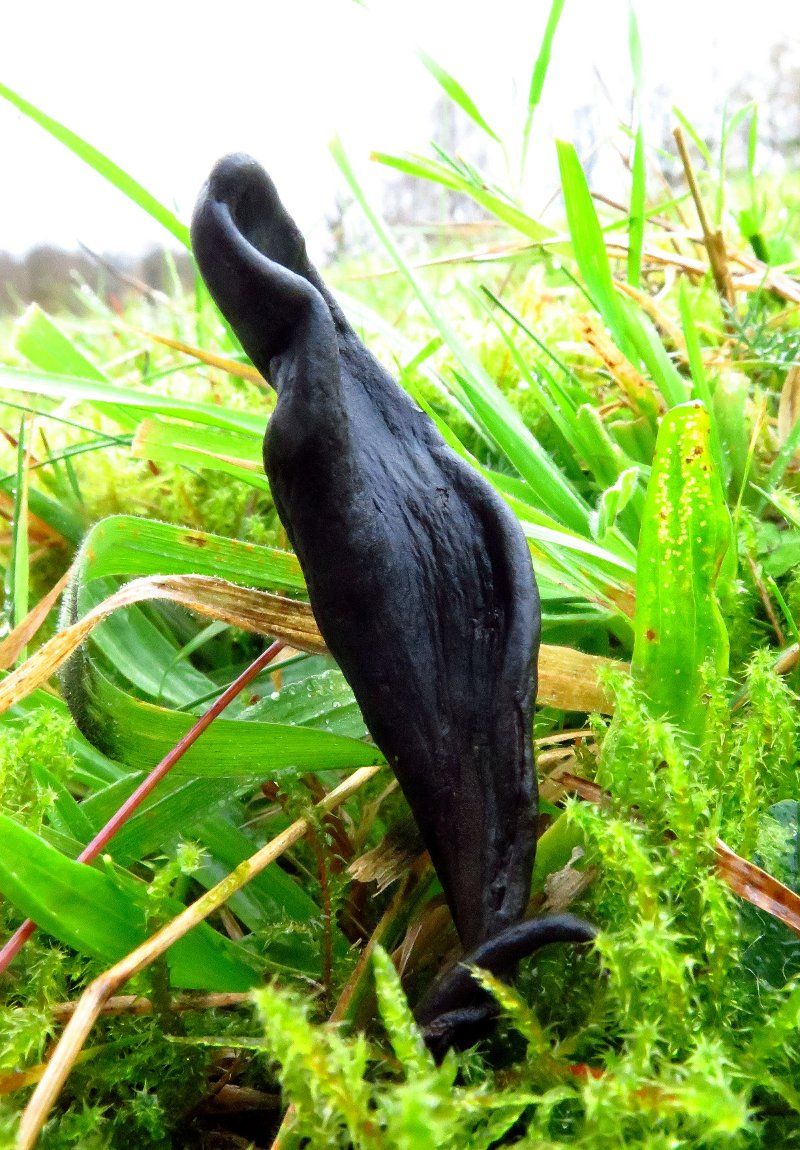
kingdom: Fungi
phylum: Ascomycota
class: Geoglossomycetes
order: Geoglossales
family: Geoglossaceae
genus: Geoglossum
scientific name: Geoglossum cookeianum
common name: bred jordtunge
